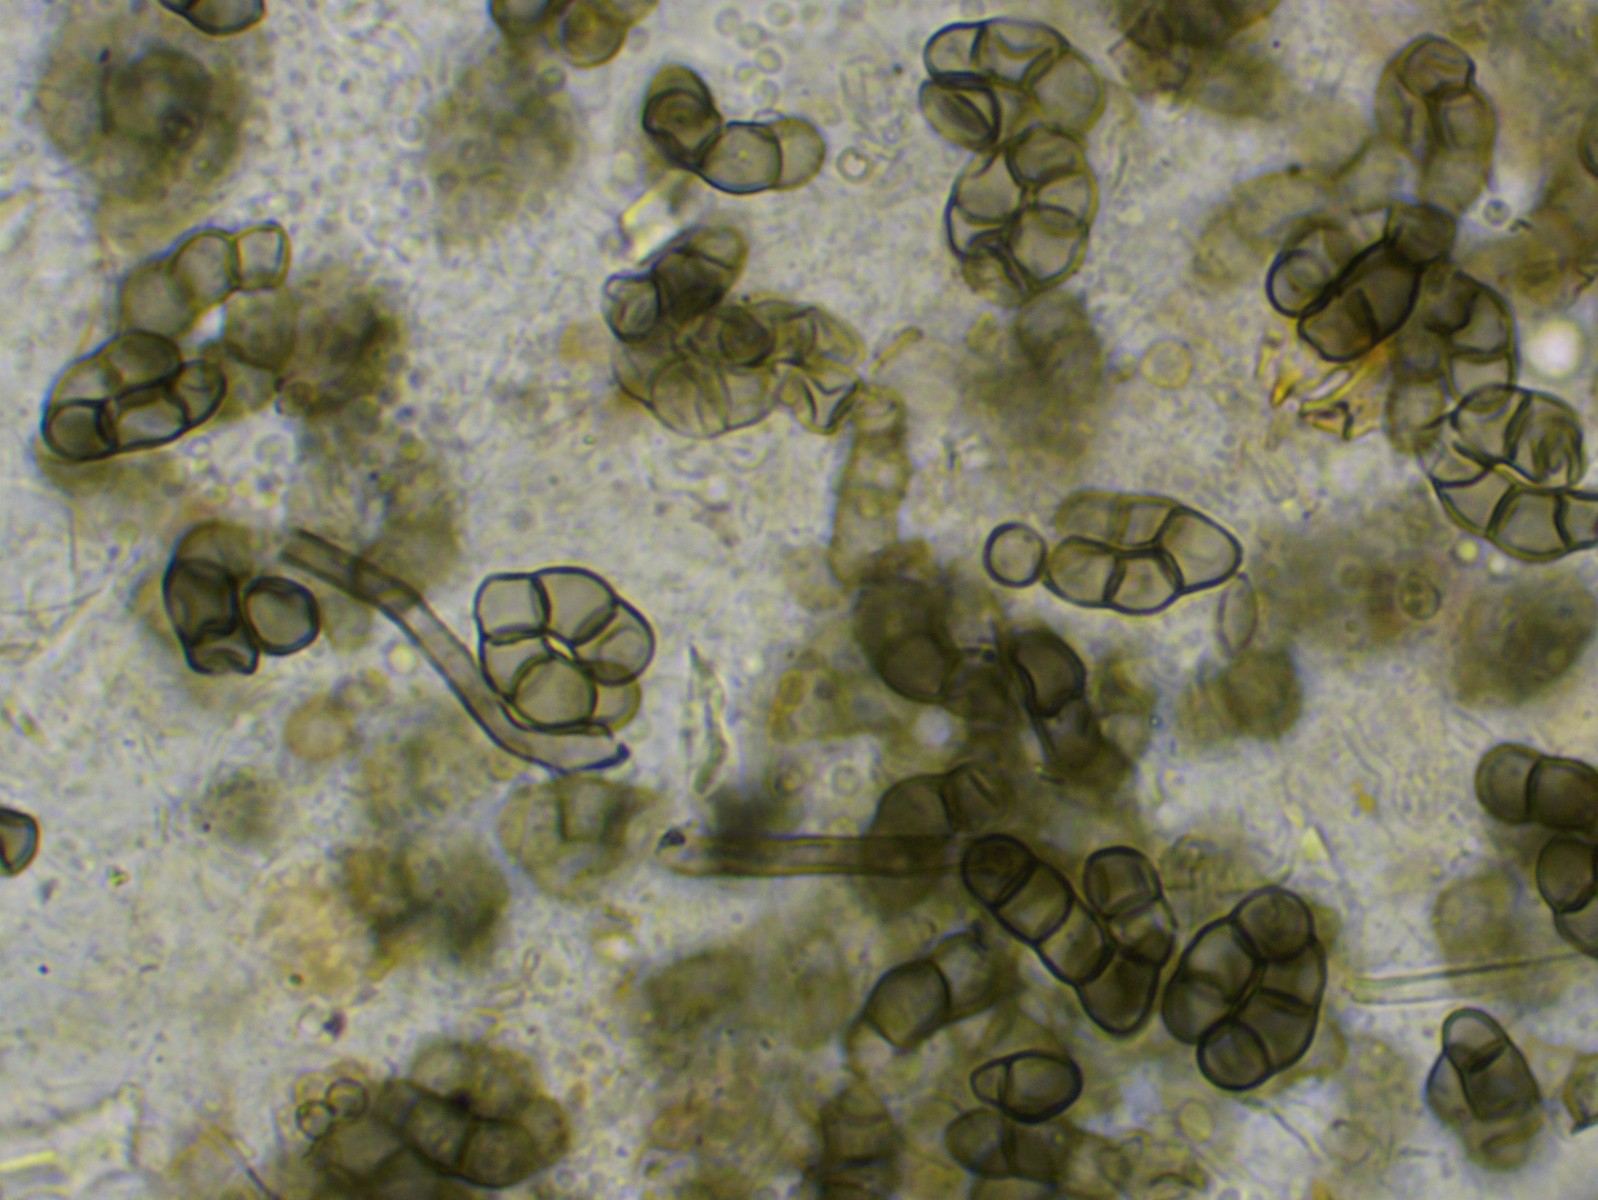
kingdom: Fungi
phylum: Ascomycota
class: Leotiomycetes
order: Helotiales
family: Hyaloscyphaceae
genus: Eupezizella
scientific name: Eupezizella aureliella
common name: almindelig klarskive
